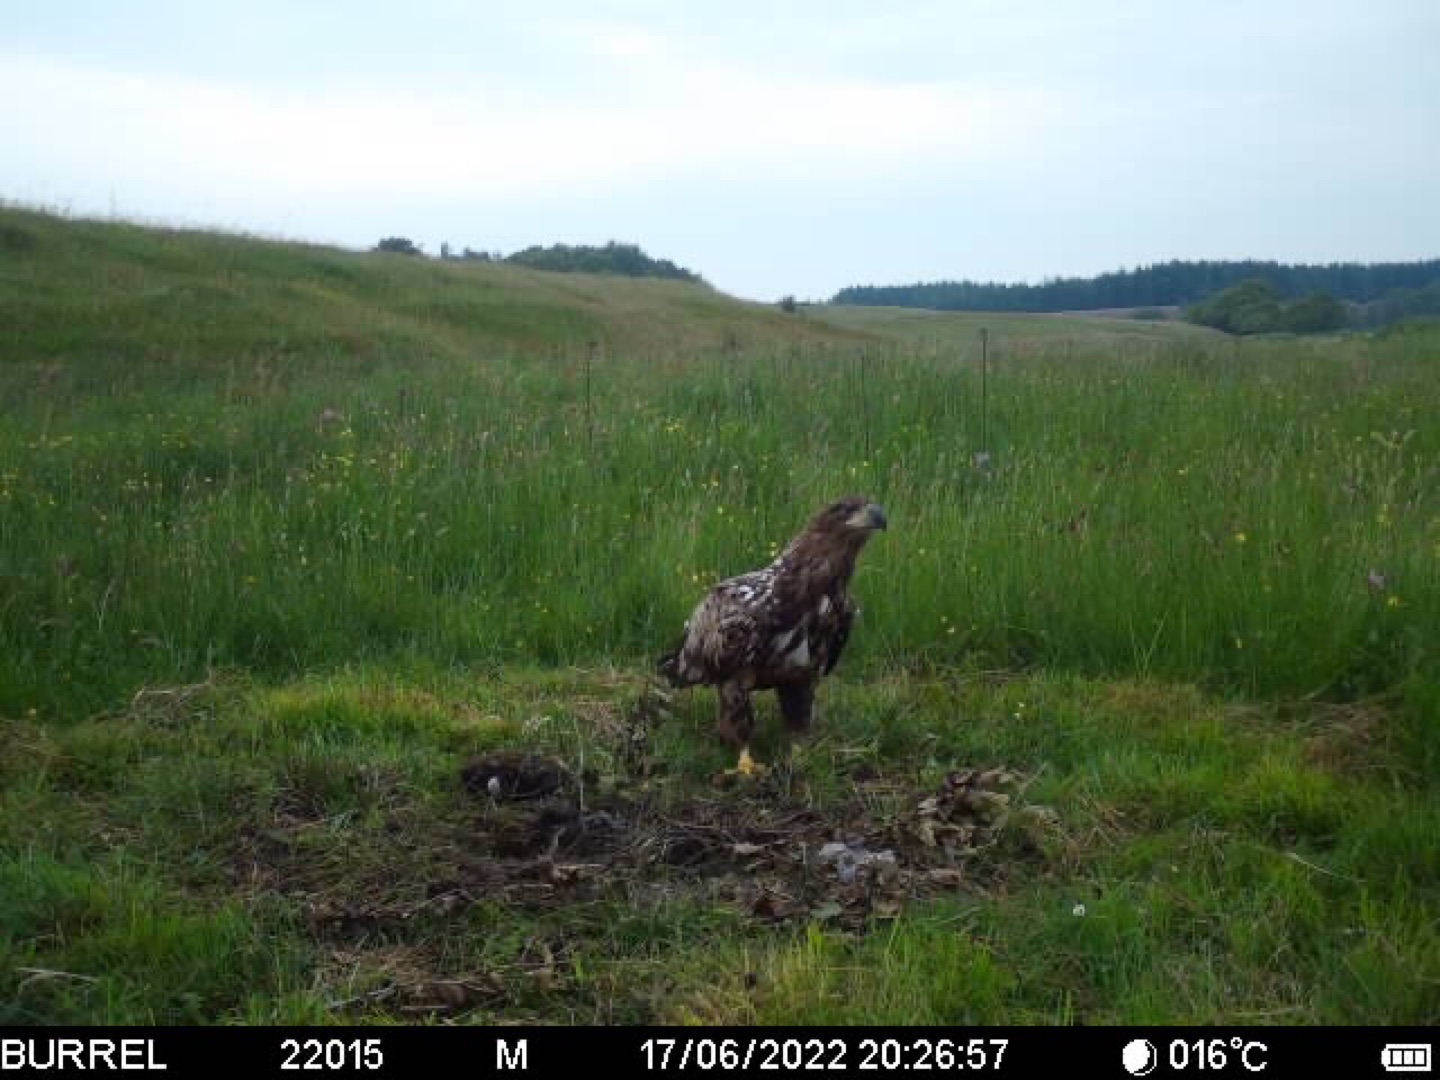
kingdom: Animalia
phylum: Chordata
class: Aves
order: Accipitriformes
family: Accipitridae
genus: Haliaeetus
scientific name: Haliaeetus albicilla
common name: Havørn
